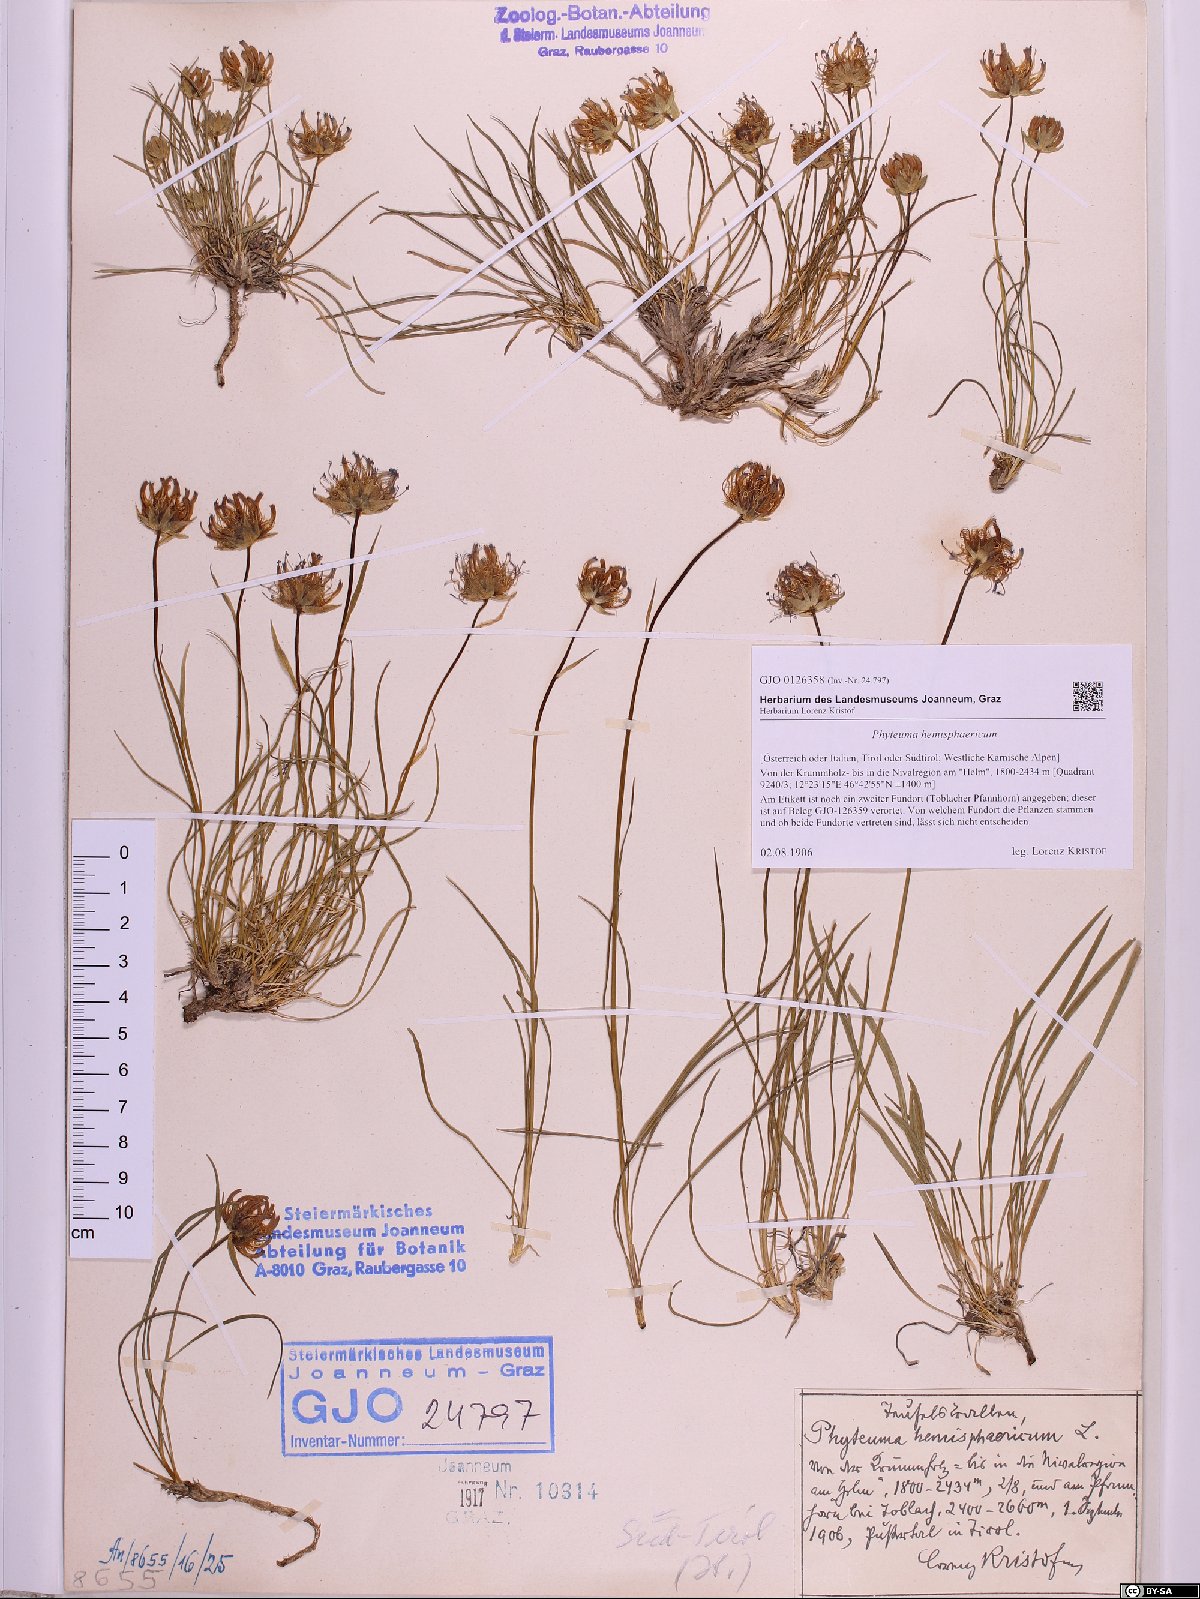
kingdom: Plantae
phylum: Tracheophyta
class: Magnoliopsida
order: Asterales
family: Campanulaceae
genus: Phyteuma
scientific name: Phyteuma hemisphaericum
